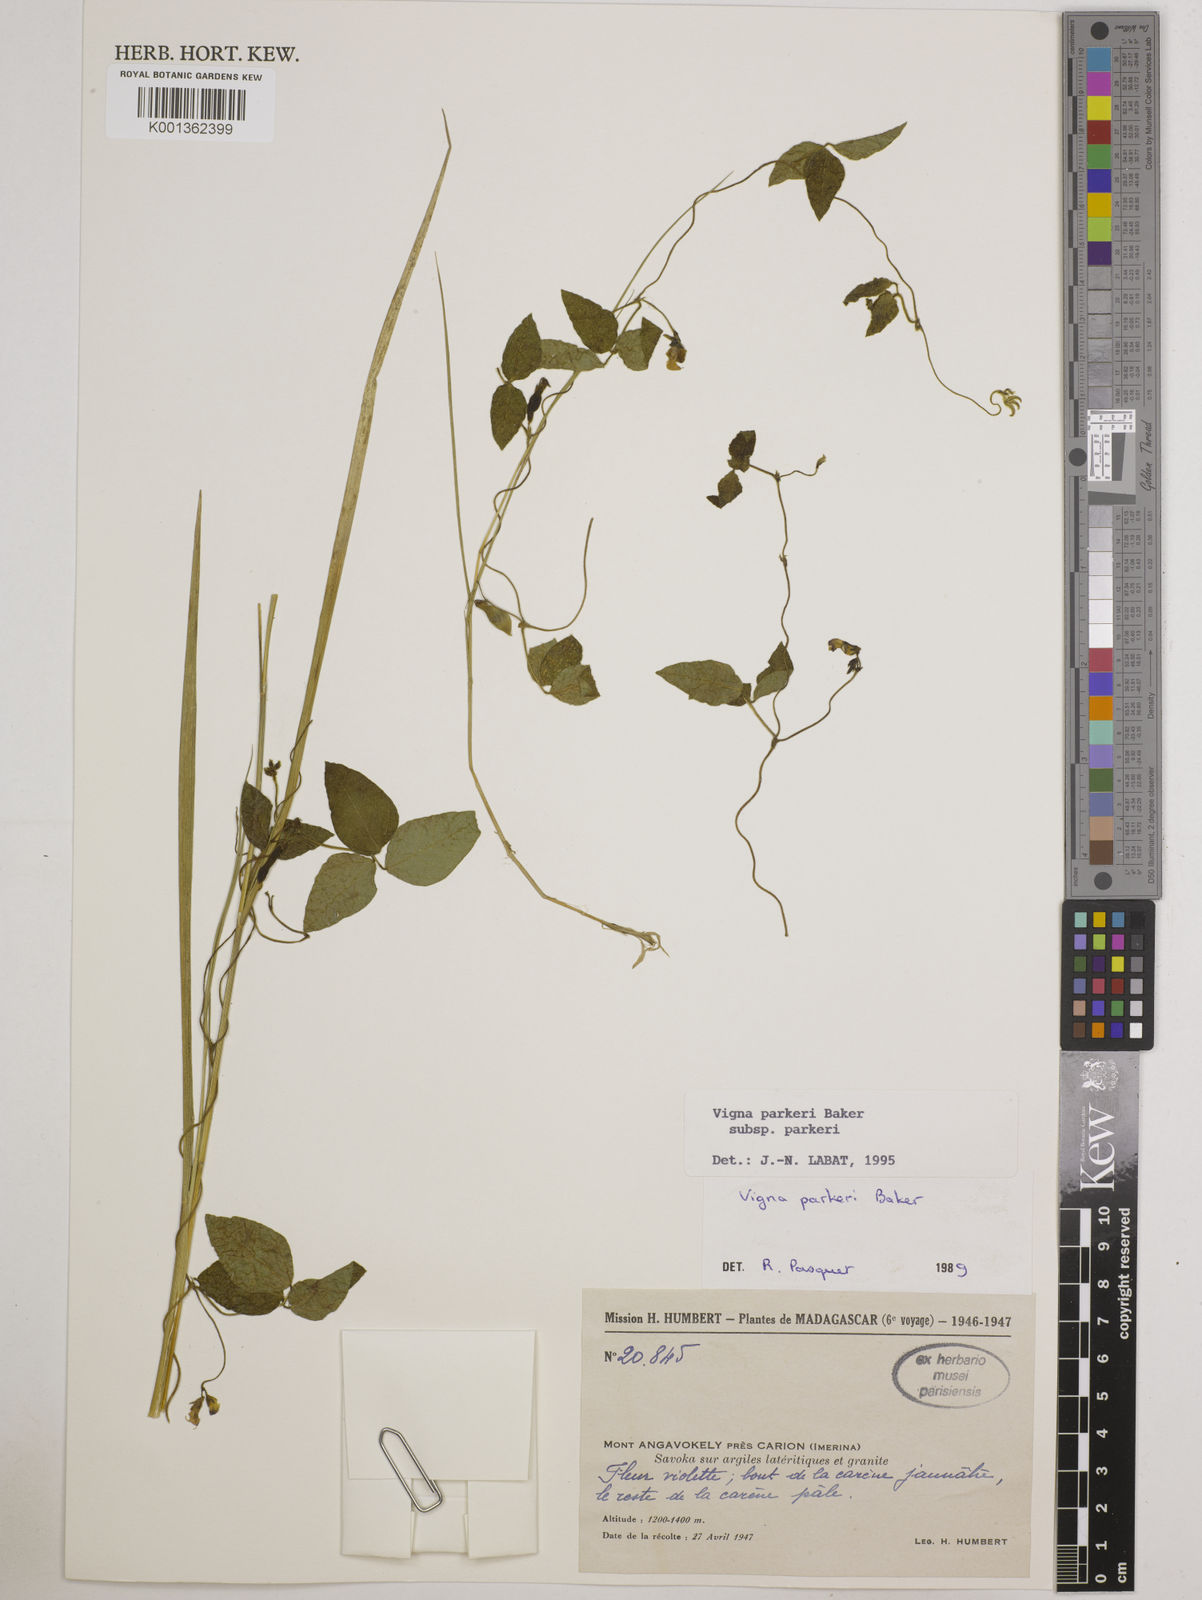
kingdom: Plantae
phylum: Tracheophyta
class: Magnoliopsida
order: Fabales
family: Fabaceae
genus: Vigna
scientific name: Vigna
